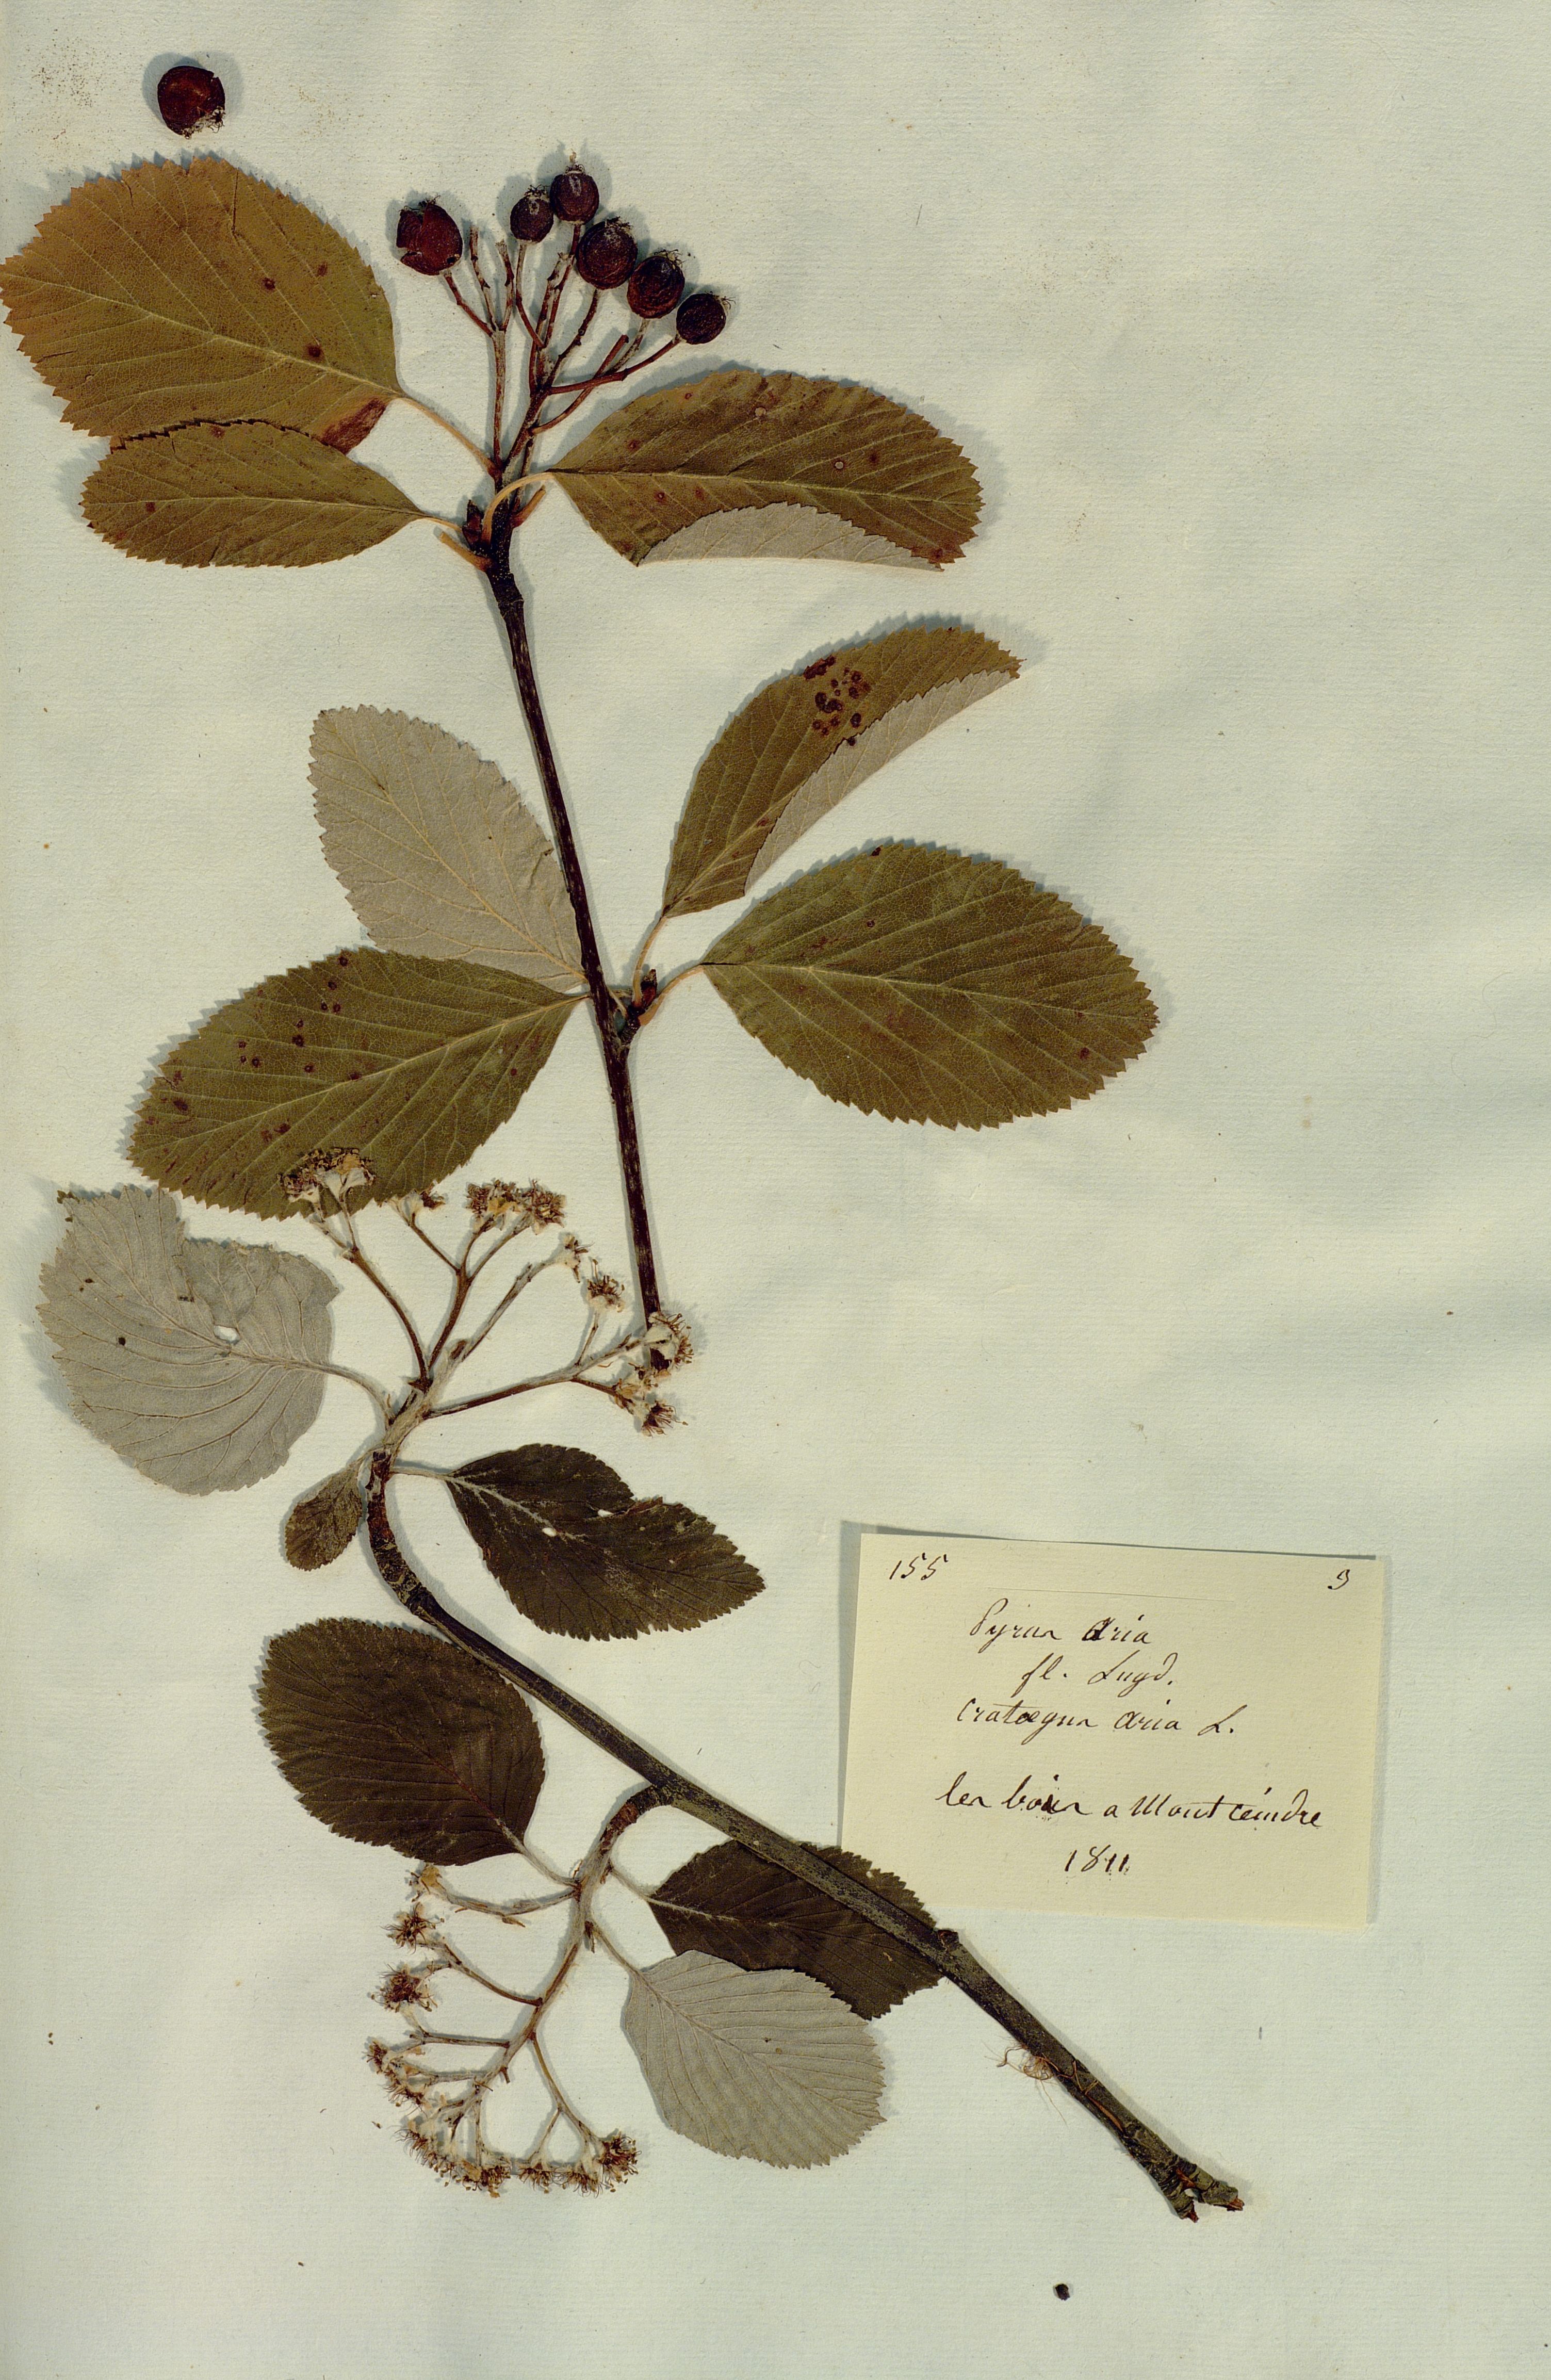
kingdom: Plantae
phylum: Tracheophyta
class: Magnoliopsida
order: Rosales
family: Rosaceae
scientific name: Rosaceae
